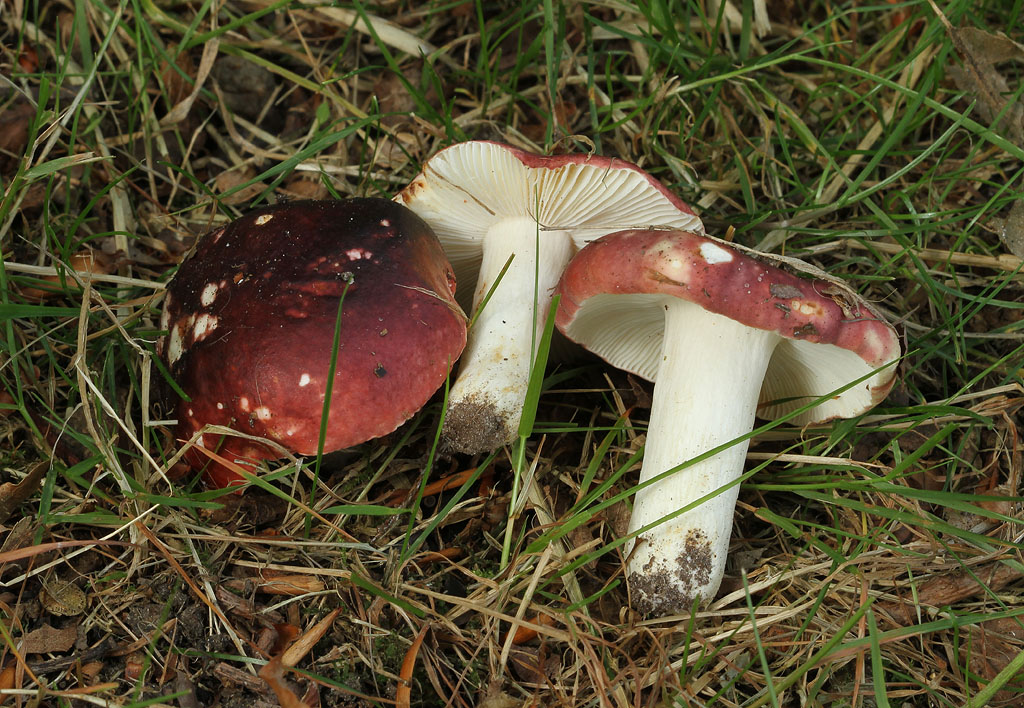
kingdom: Fungi
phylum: Basidiomycota
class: Agaricomycetes
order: Russulales
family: Russulaceae
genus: Russula
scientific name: Russula atropurpurea
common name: purpurbroget skørhat
